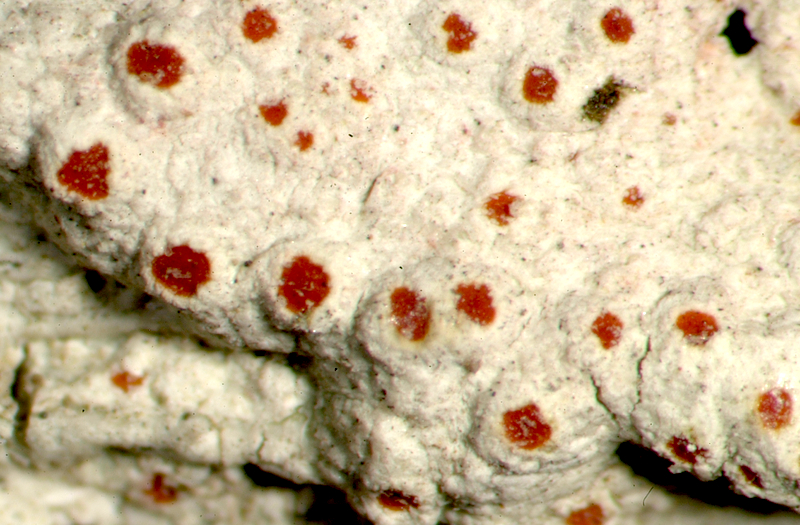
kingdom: Fungi
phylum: Ascomycota
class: Lecanoromycetes
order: Lecanorales
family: Lecanoraceae
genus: Lecanora
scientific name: Lecanora
